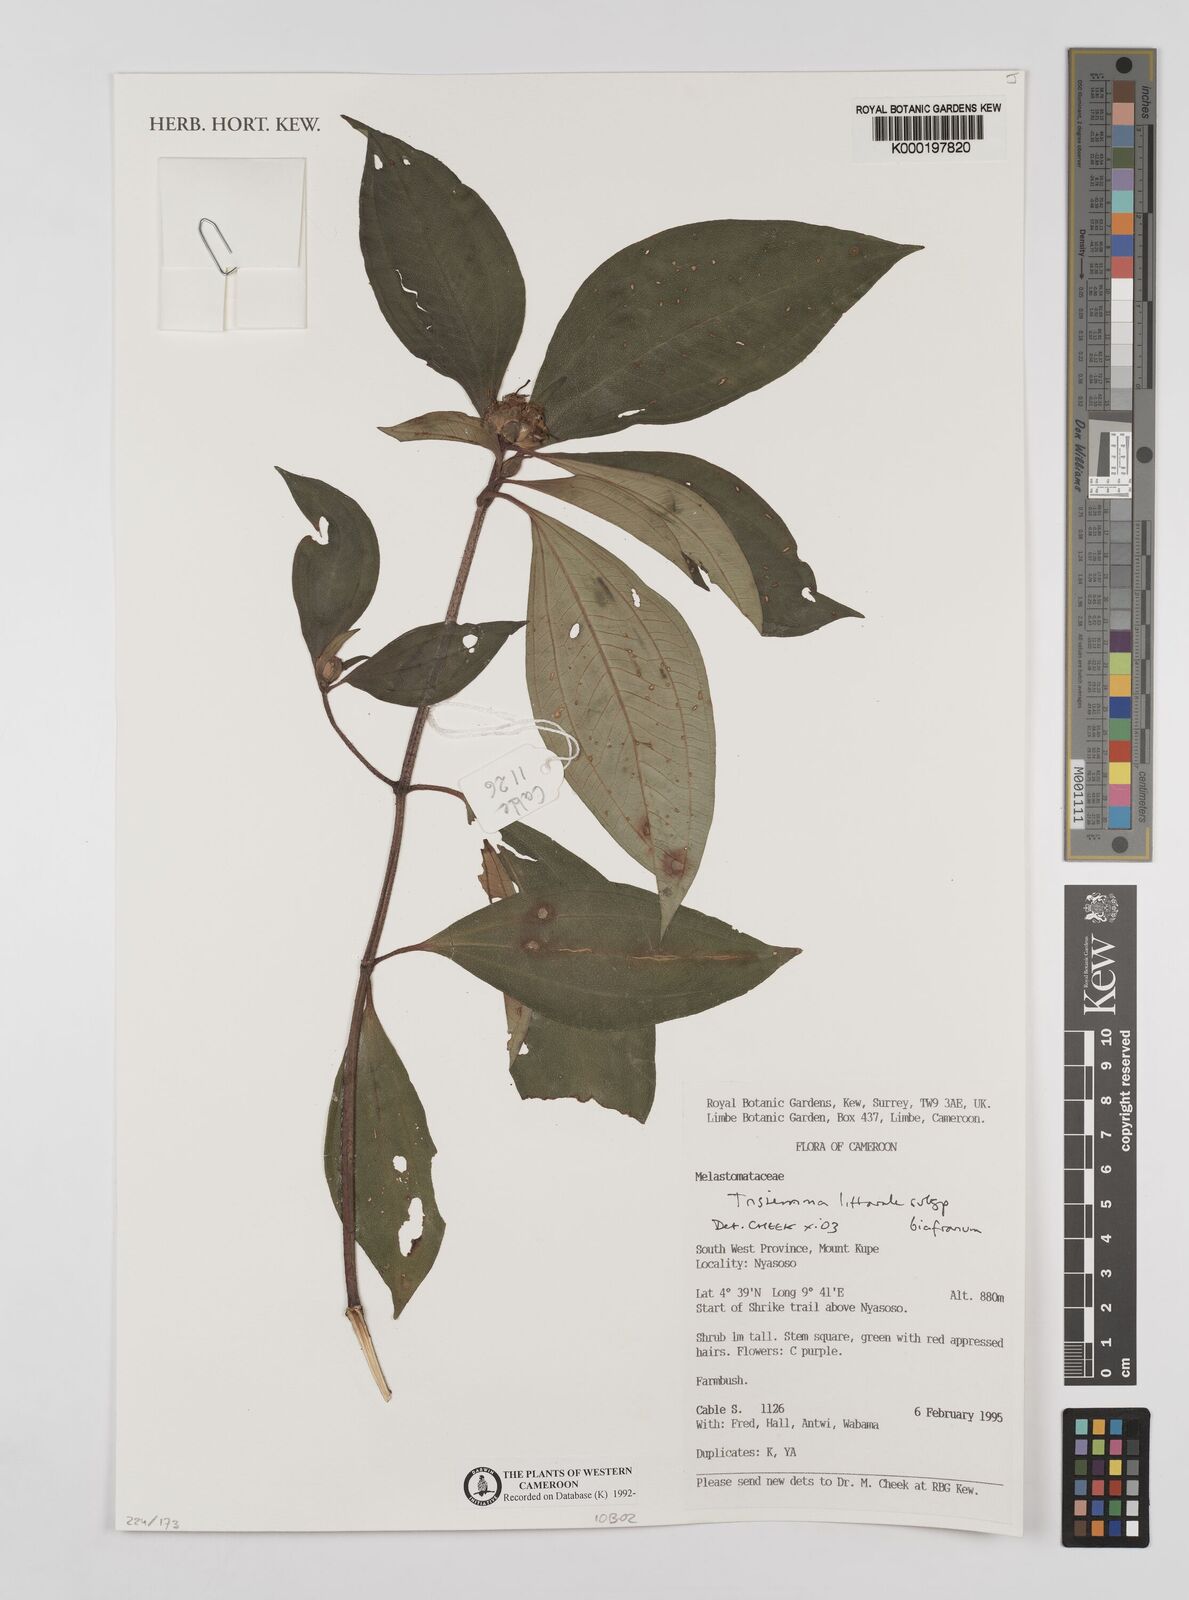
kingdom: Plantae
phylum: Tracheophyta
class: Magnoliopsida
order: Myrtales
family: Melastomataceae
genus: Tristemma
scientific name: Tristemma littorale
